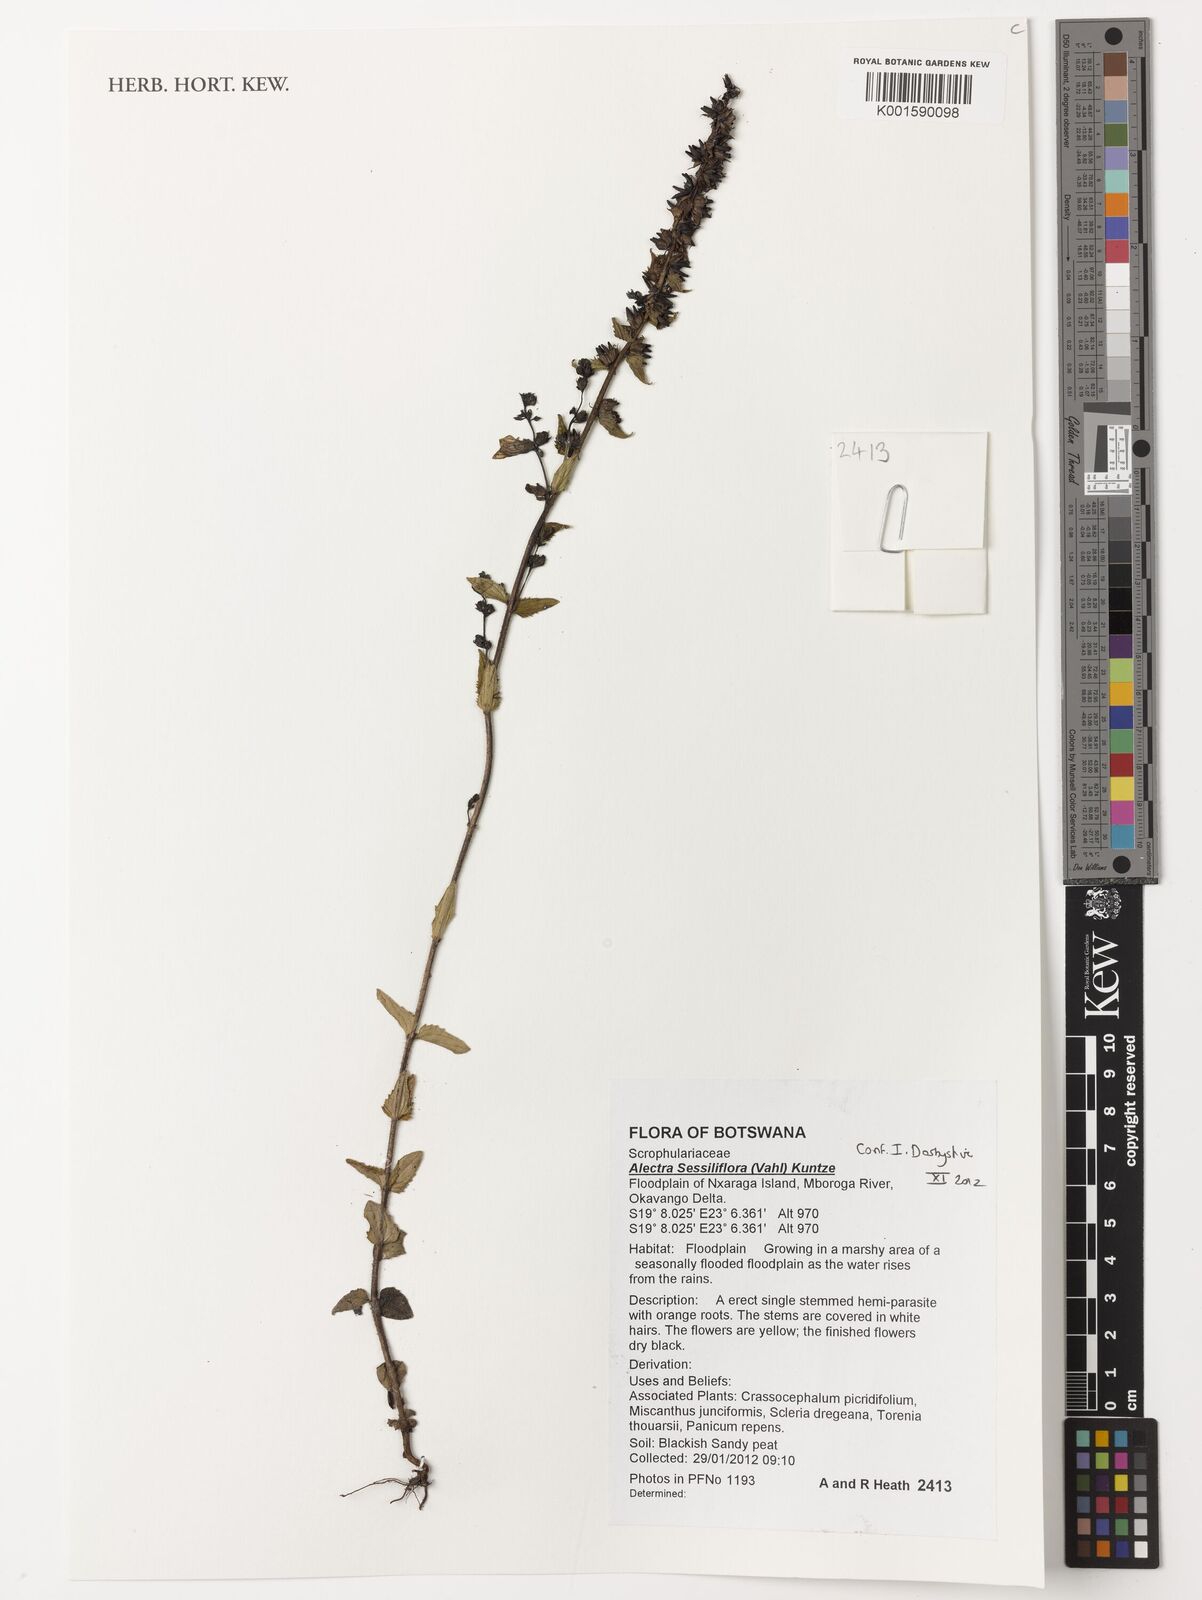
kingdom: Plantae
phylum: Tracheophyta
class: Magnoliopsida
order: Lamiales
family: Orobanchaceae
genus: Alectra
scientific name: Alectra sessiliflora
